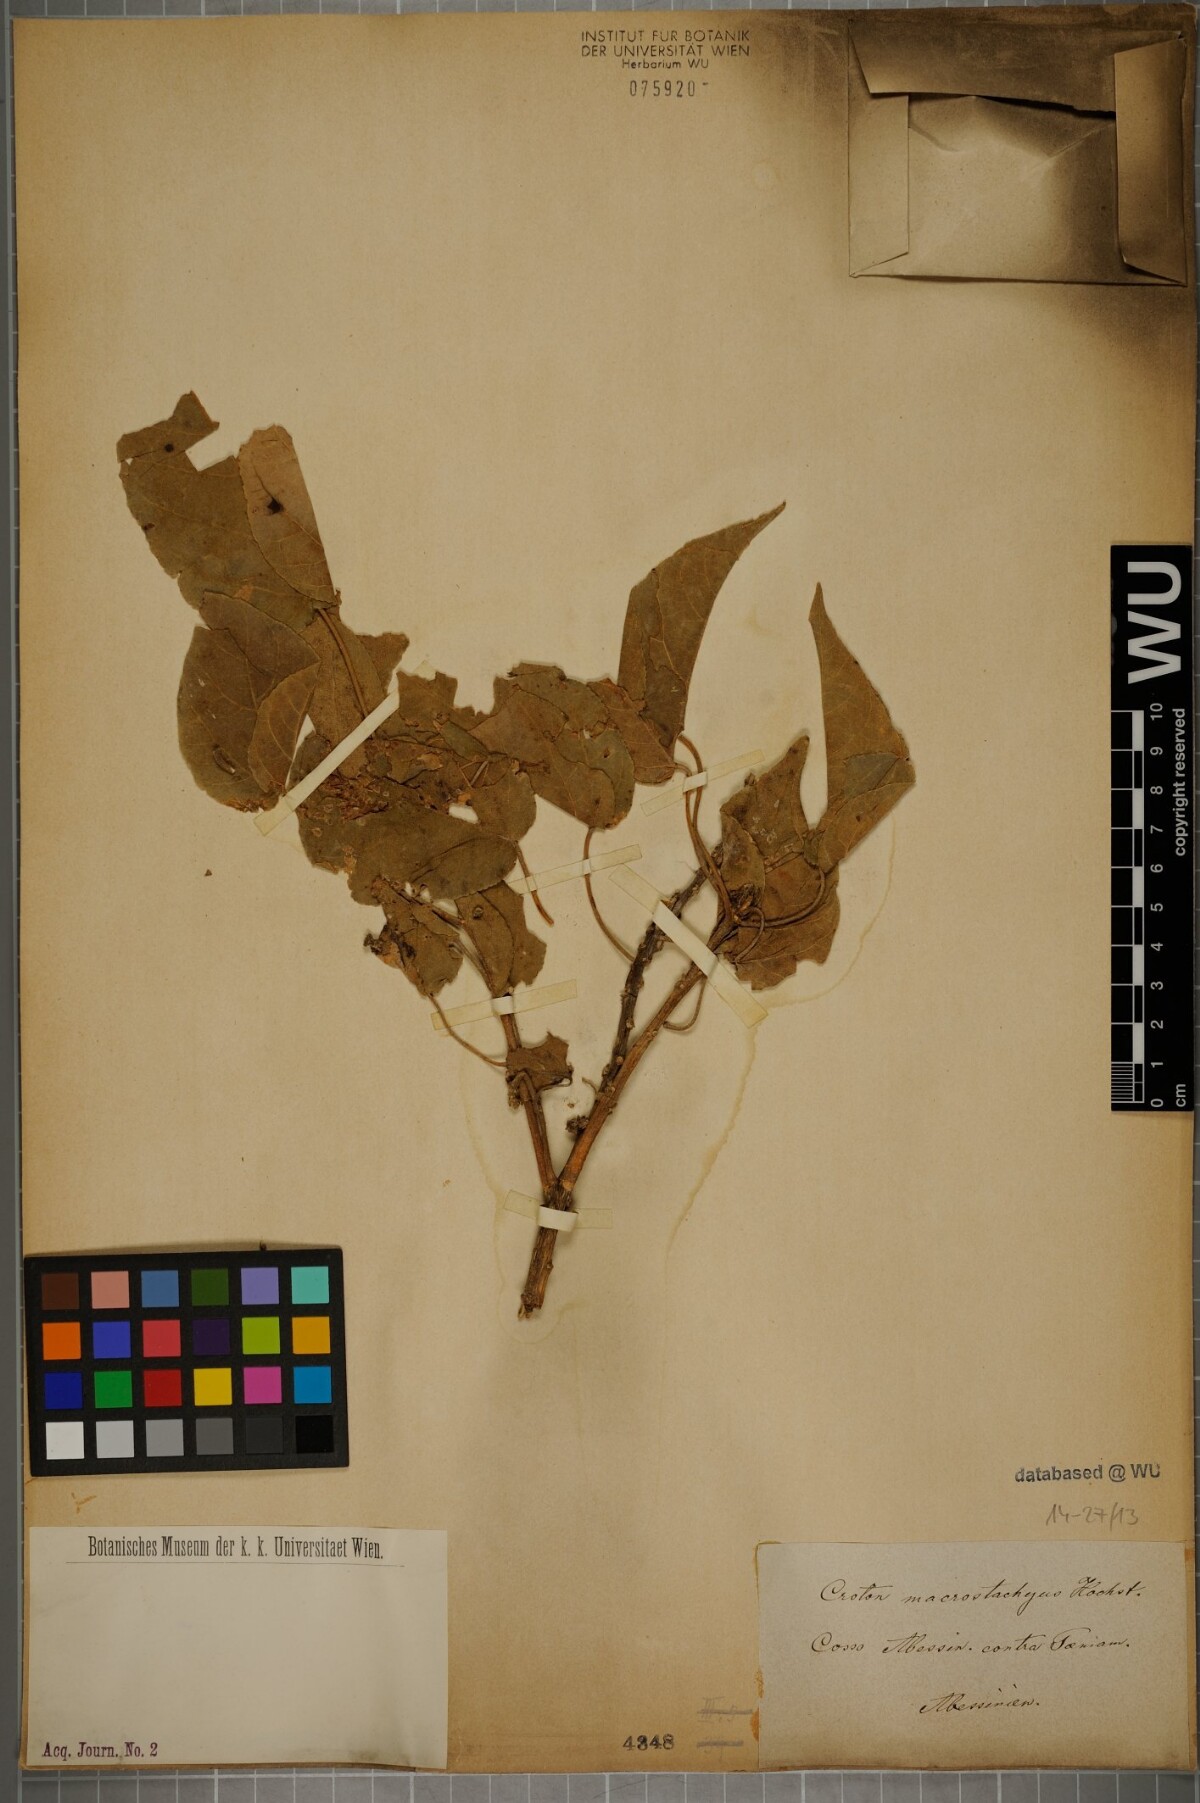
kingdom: Plantae
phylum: Tracheophyta
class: Magnoliopsida
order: Malpighiales
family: Euphorbiaceae
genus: Croton
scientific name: Croton macrostachys
